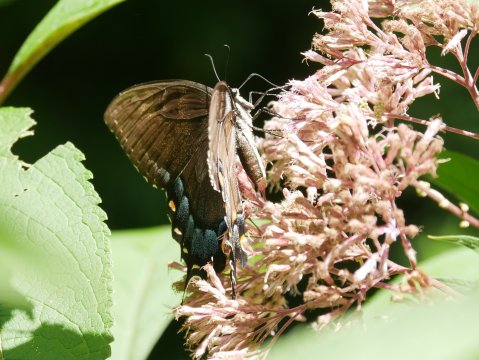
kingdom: Animalia
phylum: Arthropoda
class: Insecta
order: Lepidoptera
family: Papilionidae
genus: Pterourus
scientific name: Pterourus glaucus
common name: Eastern Tiger Swallowtail
